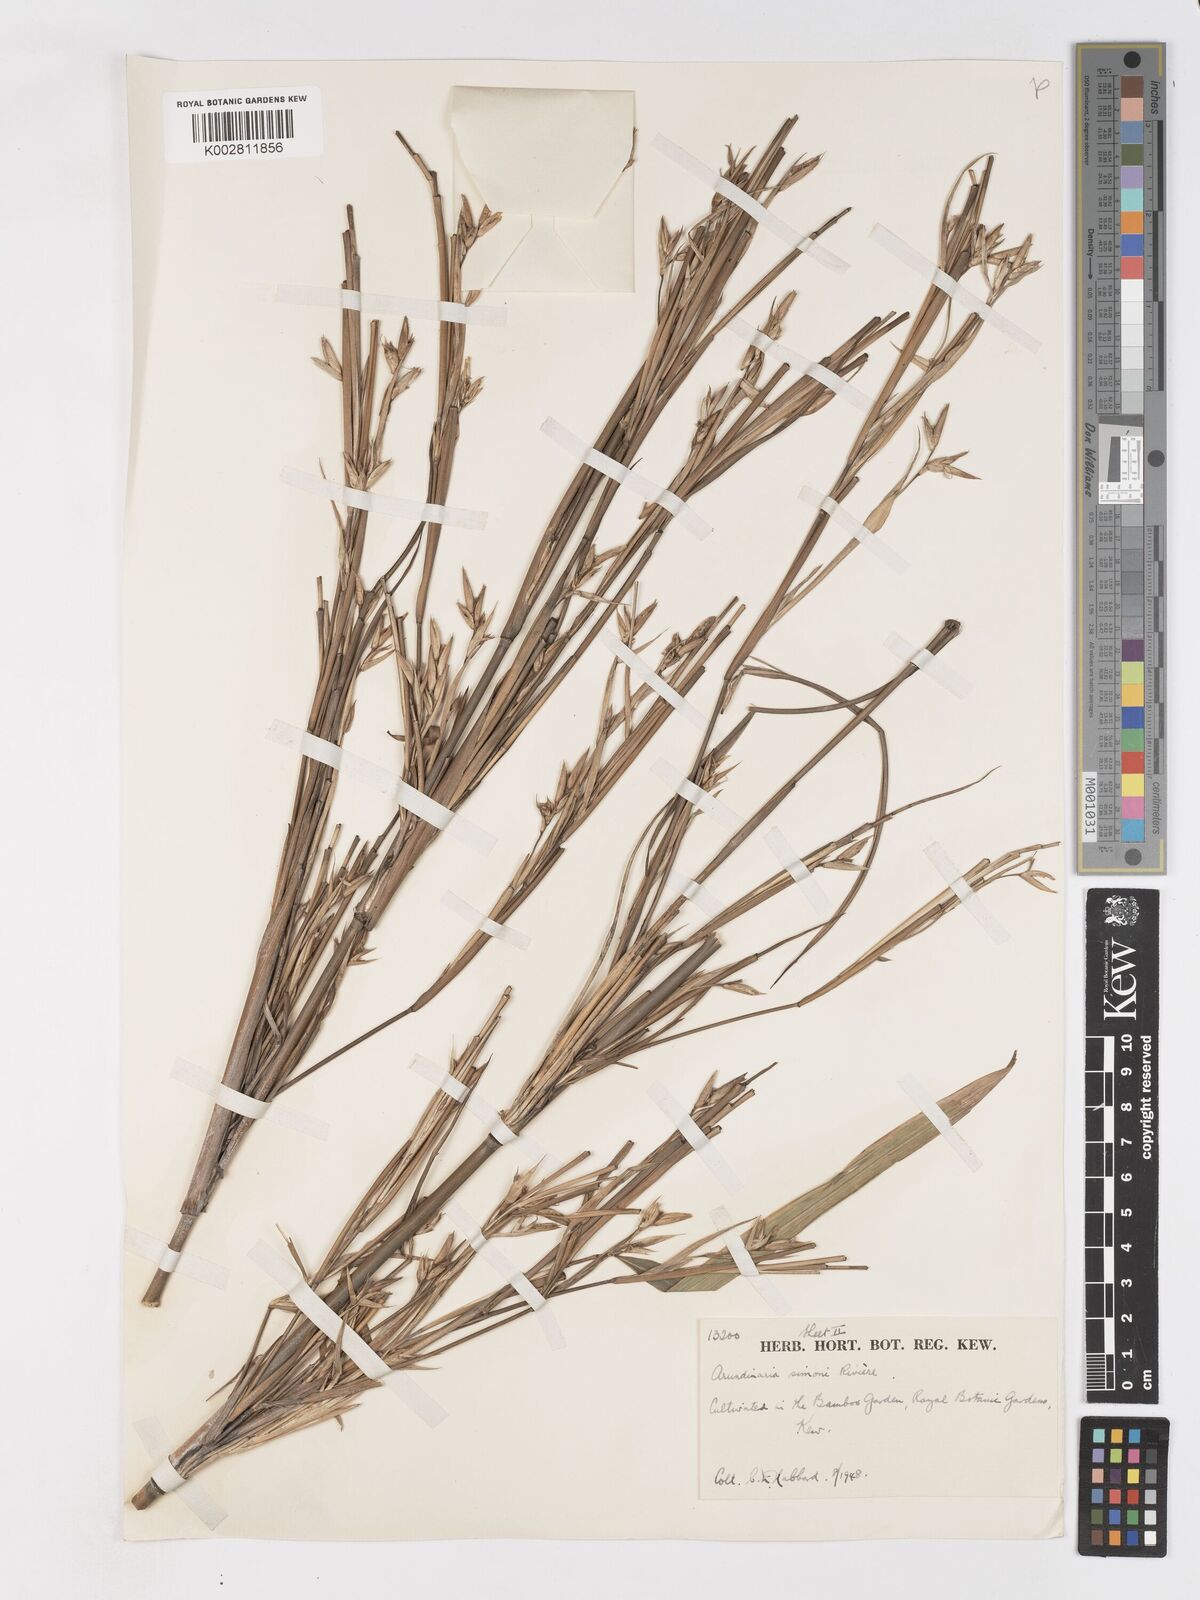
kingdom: Plantae
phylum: Tracheophyta
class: Liliopsida
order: Poales
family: Poaceae
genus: Pleioblastus
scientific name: Pleioblastus simonii
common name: Simon bamboo
